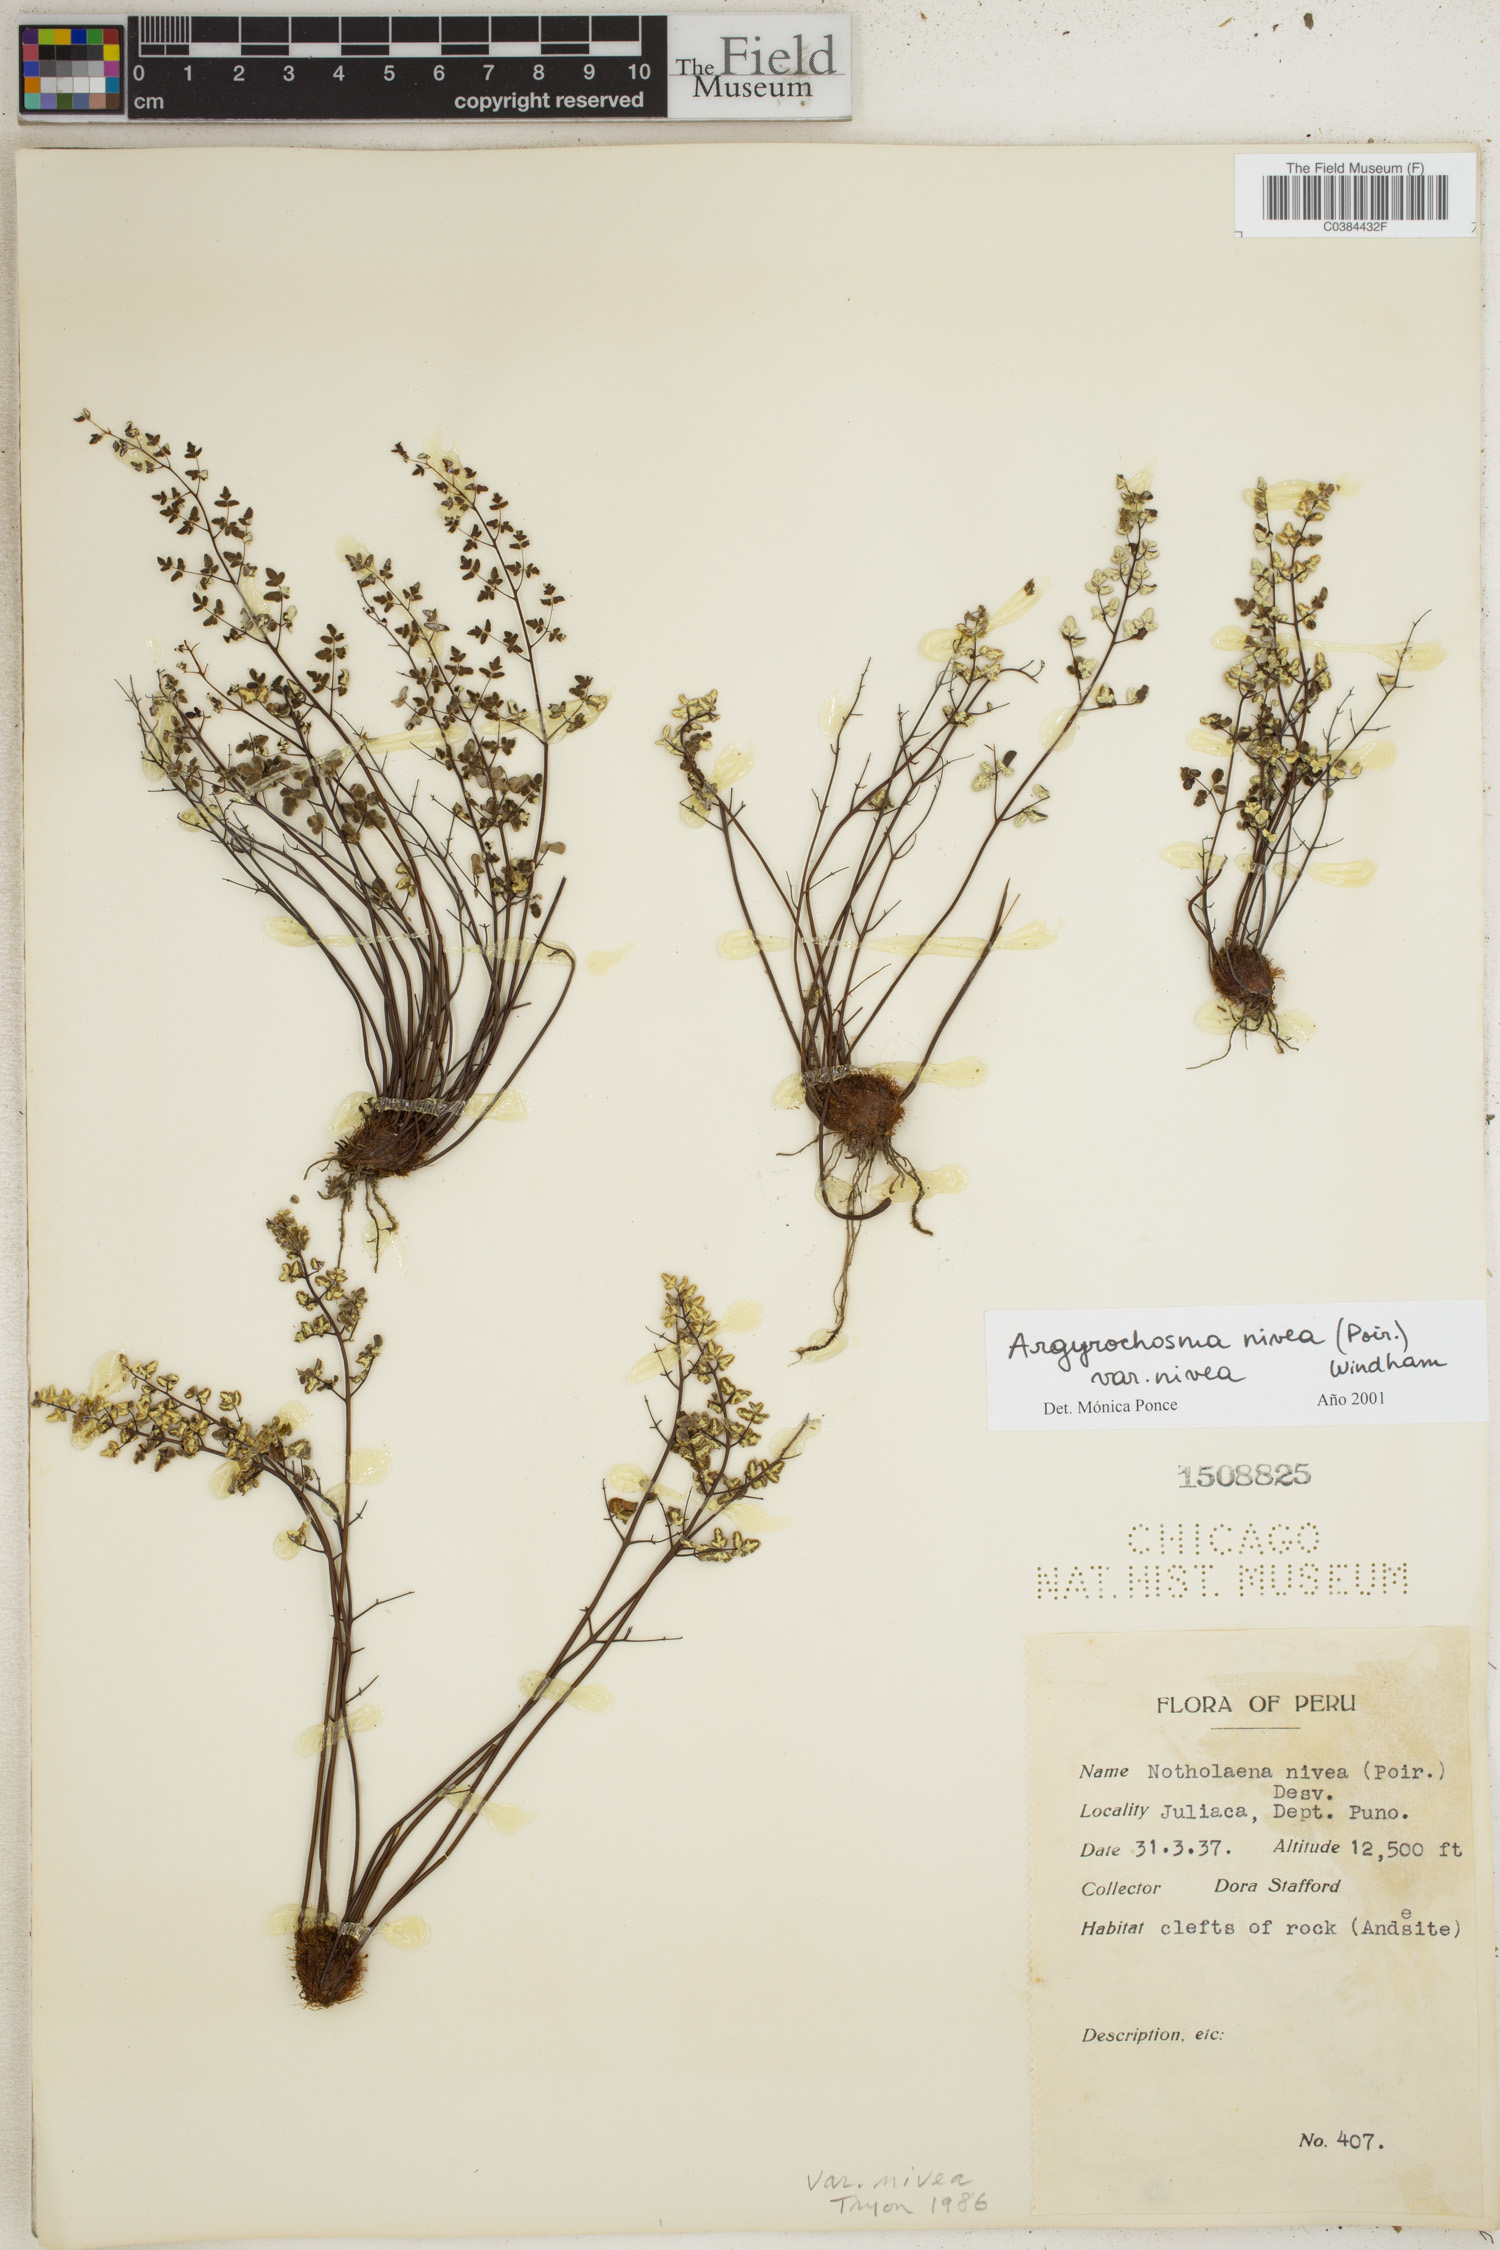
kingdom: Plantae
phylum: Tracheophyta
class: Polypodiopsida
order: Polypodiales
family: Pteridaceae
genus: Argyrochosma
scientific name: Argyrochosma nivea
